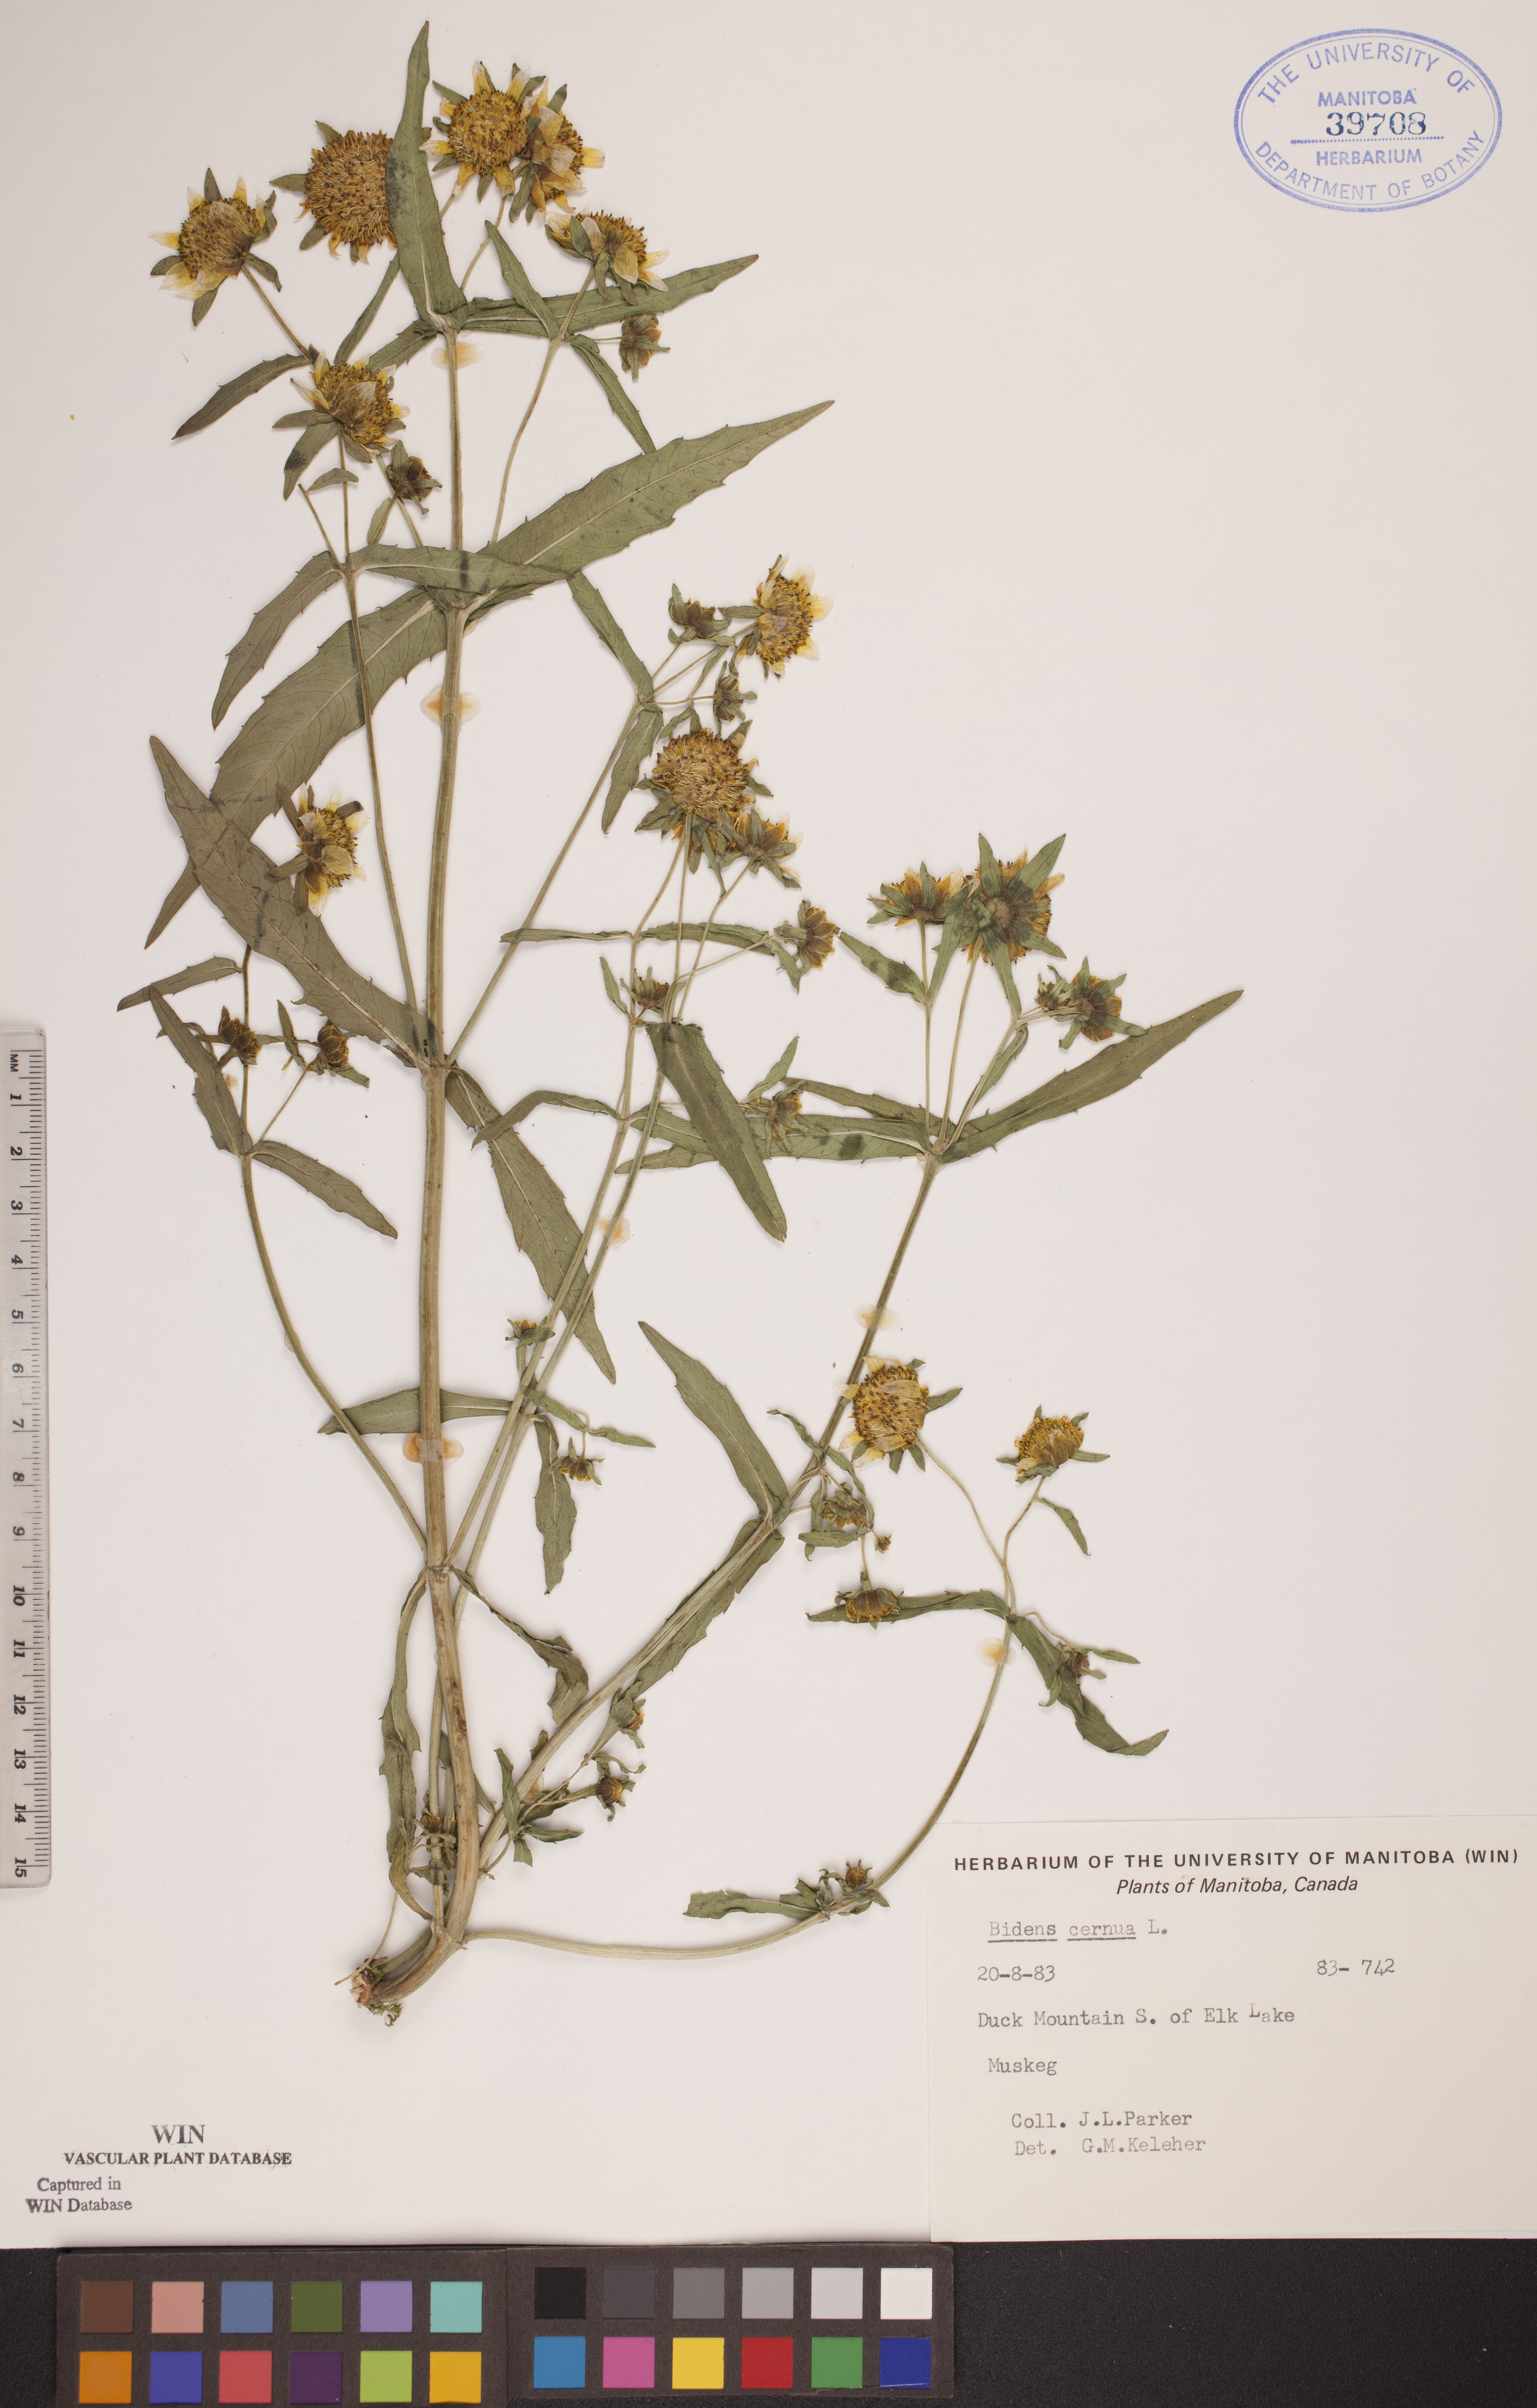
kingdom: Plantae
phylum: Tracheophyta
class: Magnoliopsida
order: Asterales
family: Asteraceae
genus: Bidens
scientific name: Bidens cernua
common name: Nodding bur-marigold
